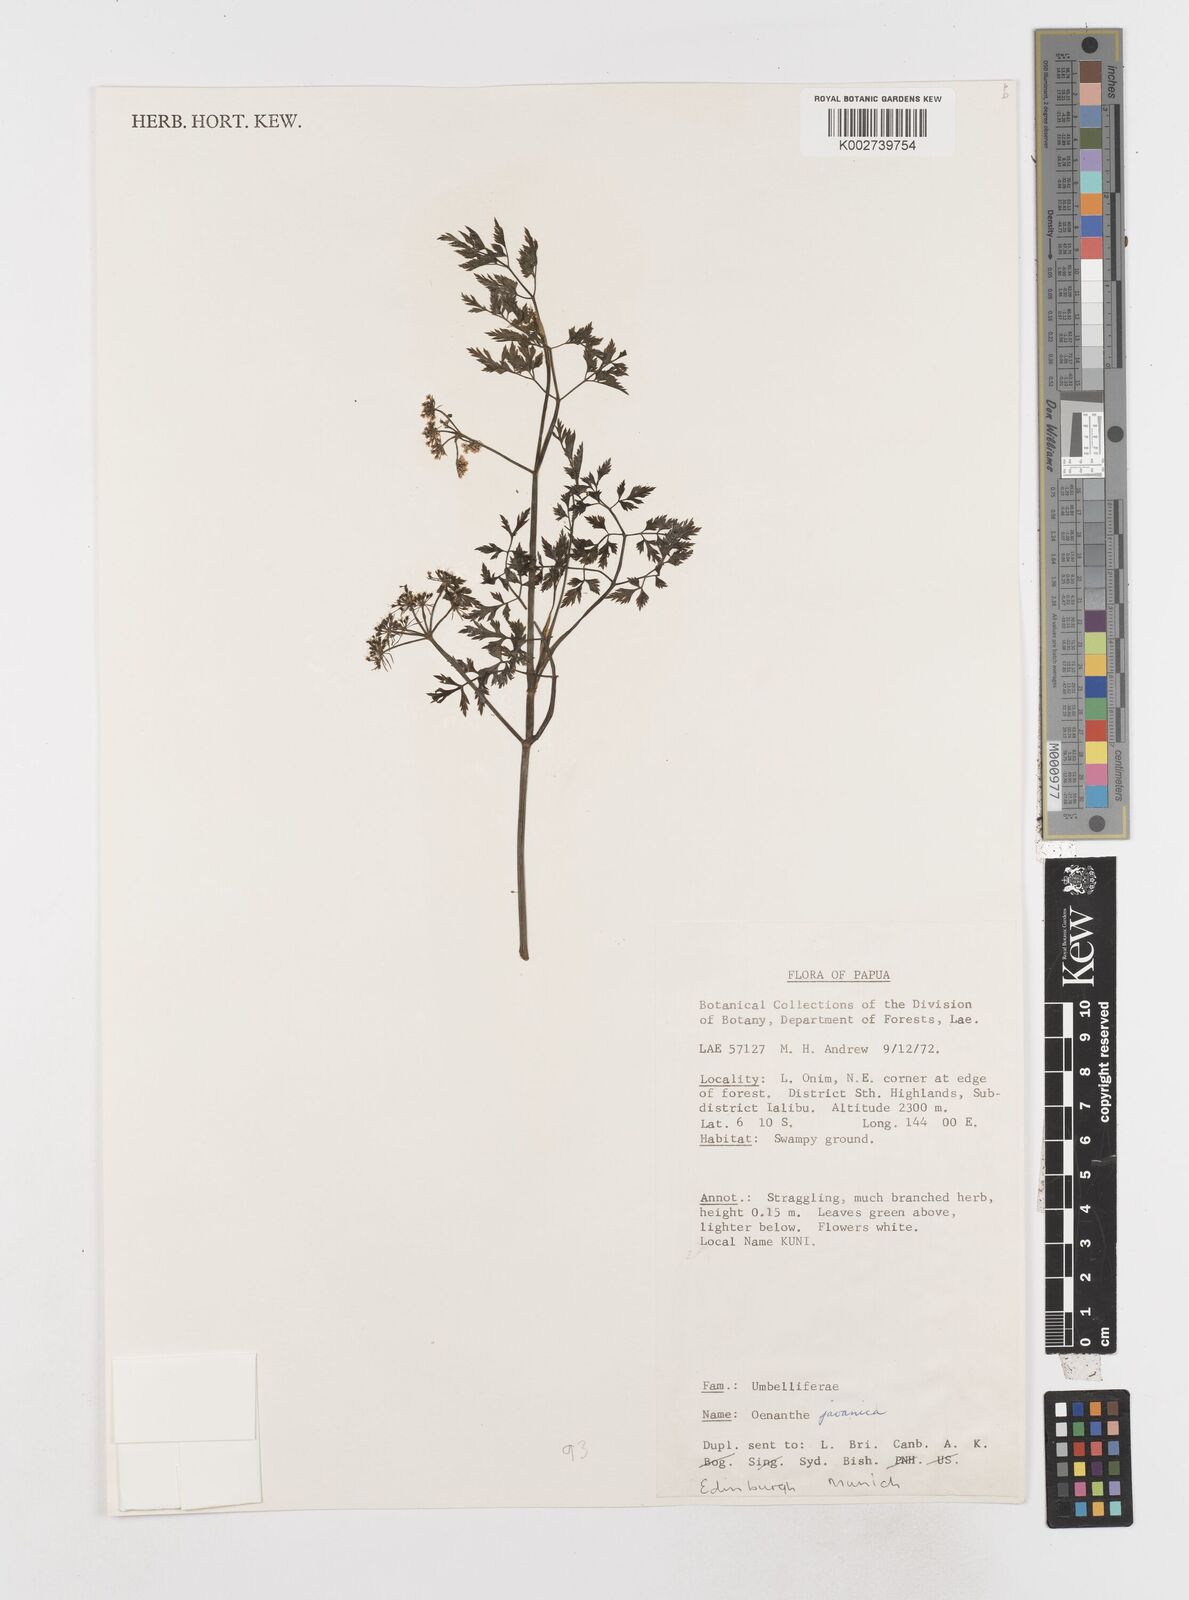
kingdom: Plantae
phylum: Tracheophyta
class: Magnoliopsida
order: Apiales
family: Apiaceae
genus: Oenanthe
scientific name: Oenanthe javanica
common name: Java water-dropwort
